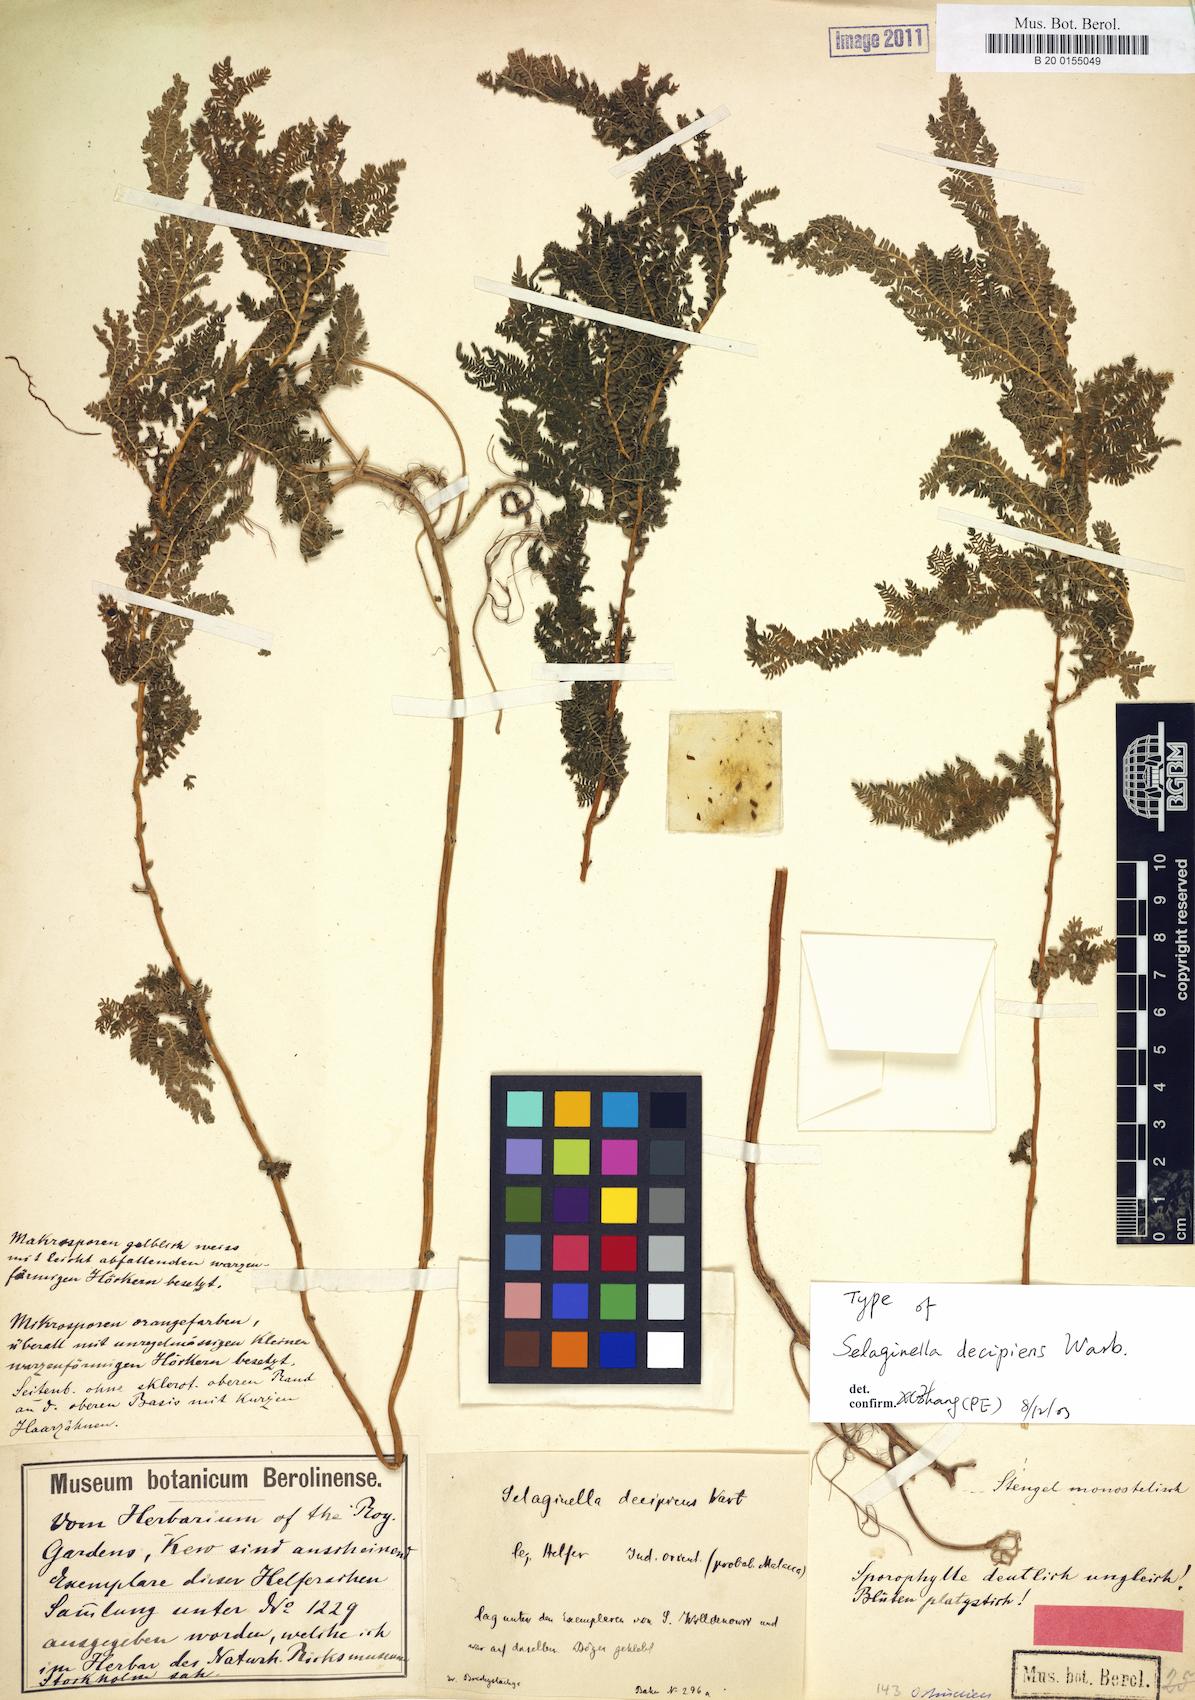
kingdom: Plantae
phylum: Tracheophyta
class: Lycopodiopsida
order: Selaginellales
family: Selaginellaceae
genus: Selaginella
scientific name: Selaginella decipiens
